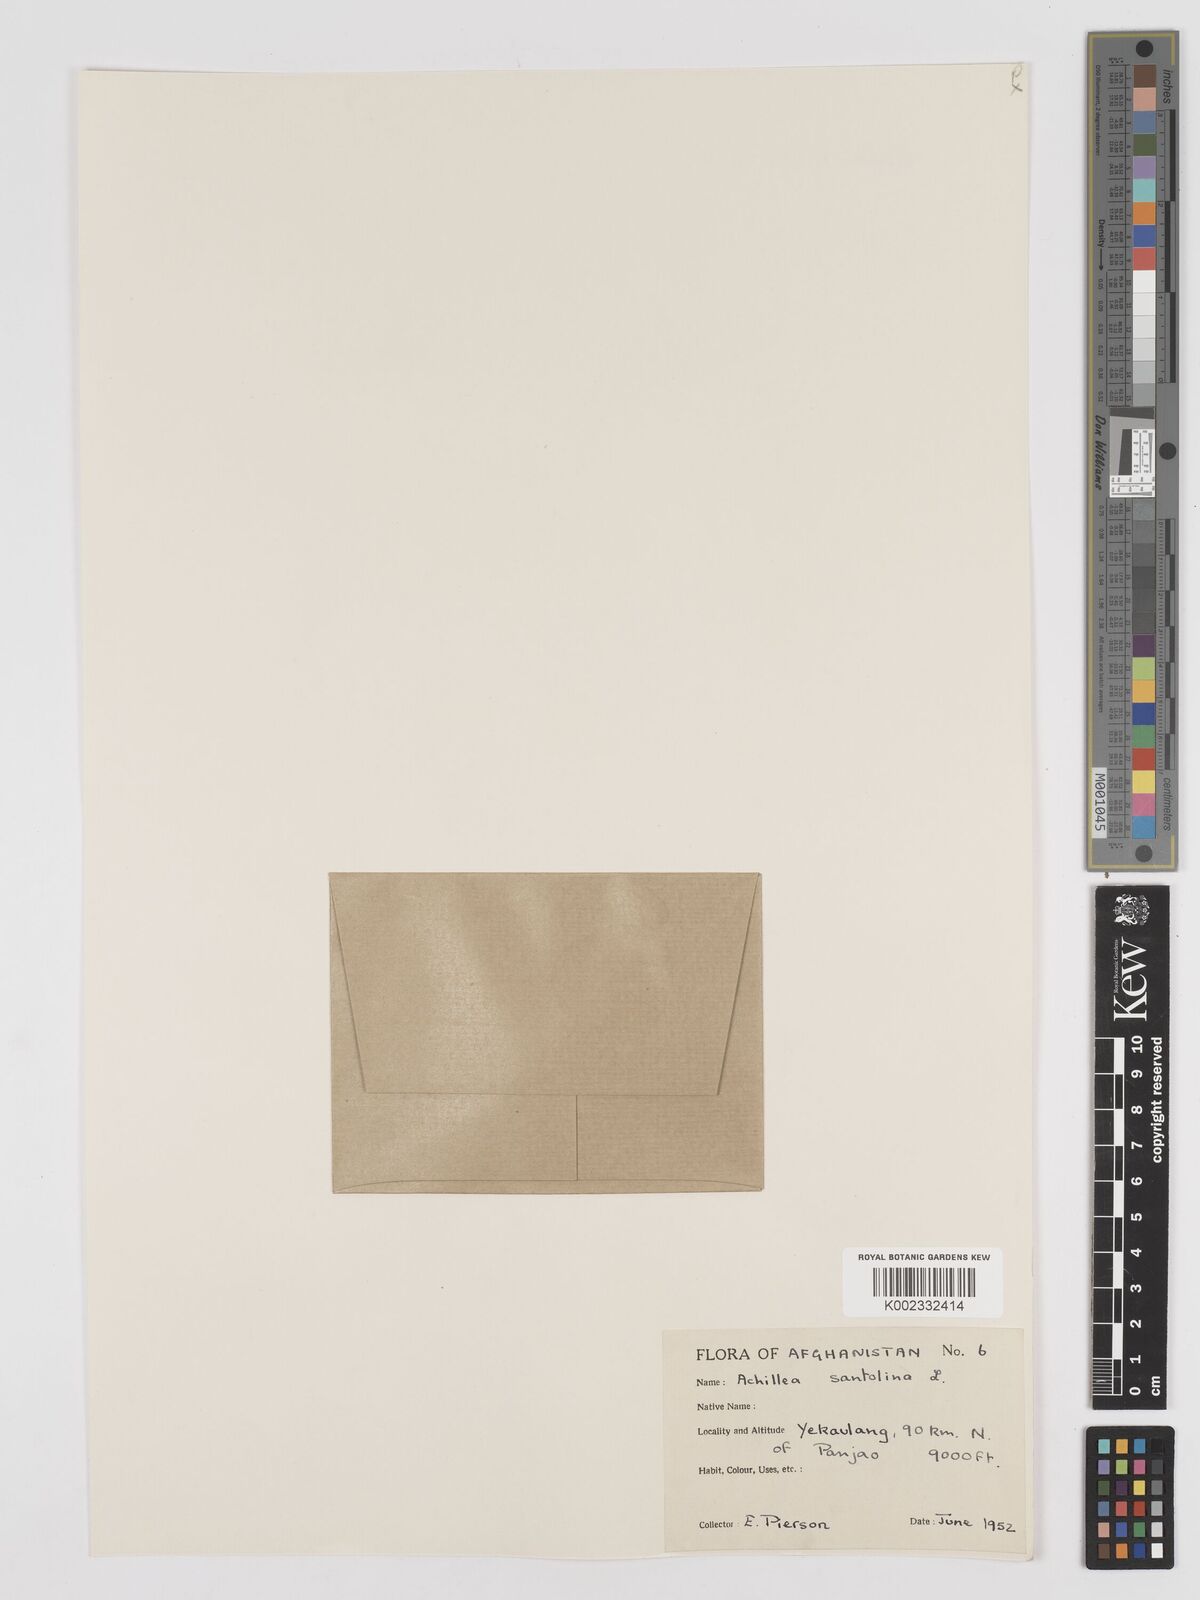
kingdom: Plantae
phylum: Tracheophyta
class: Magnoliopsida
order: Asterales
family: Asteraceae
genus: Achillea
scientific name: Achillea tenuifolia
